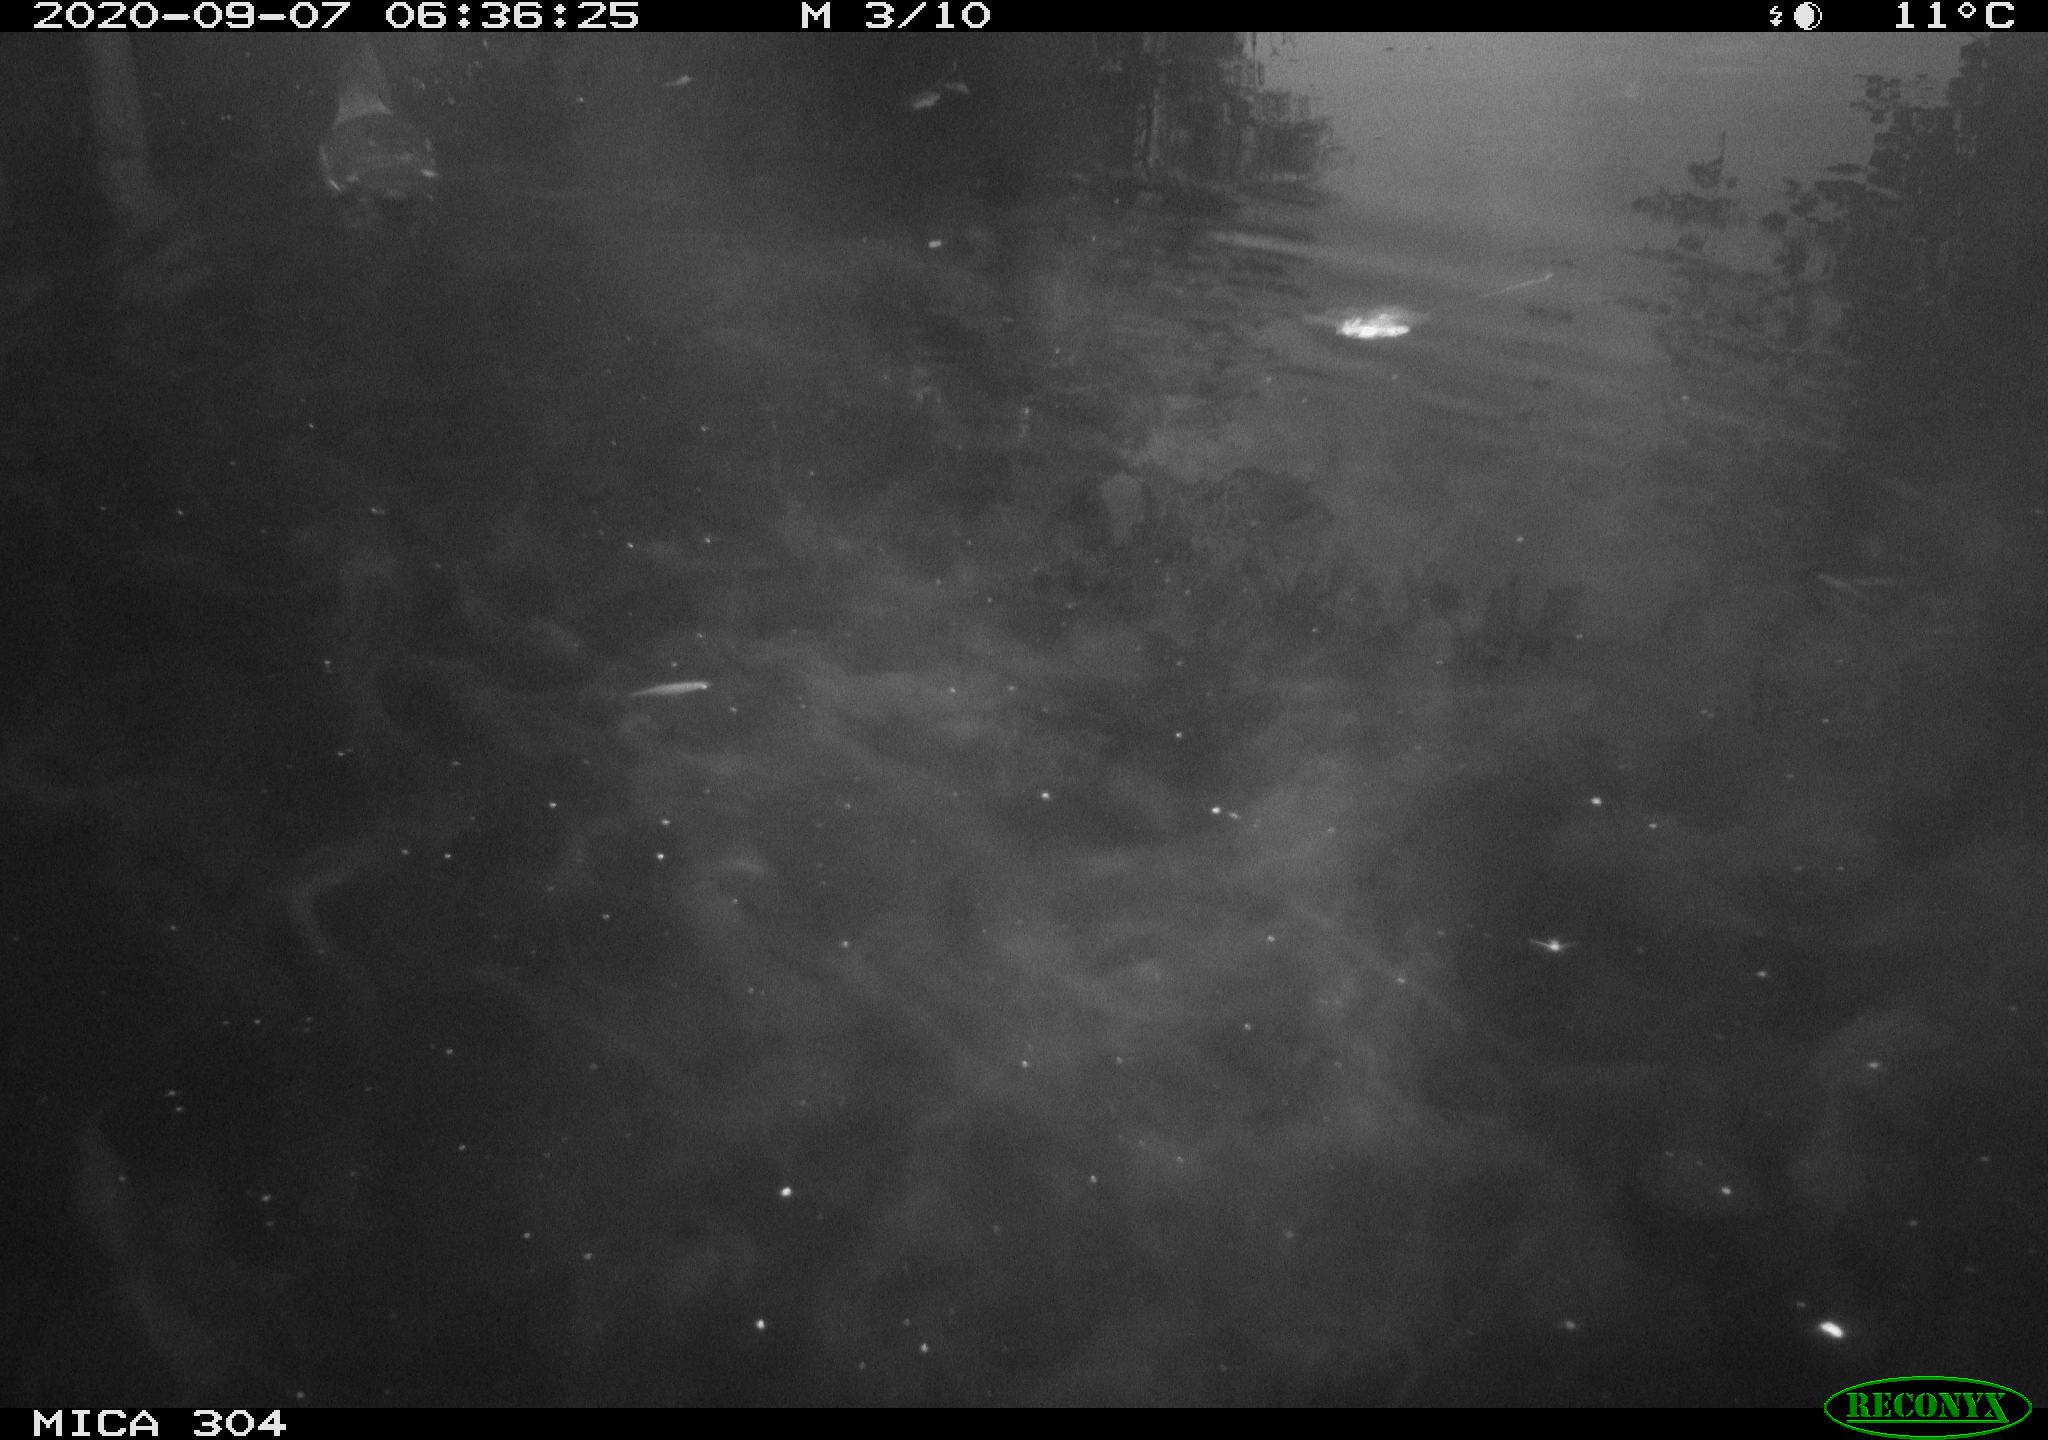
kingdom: Animalia
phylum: Chordata
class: Aves
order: Gruiformes
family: Rallidae
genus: Gallinula
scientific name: Gallinula chloropus
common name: Common moorhen
